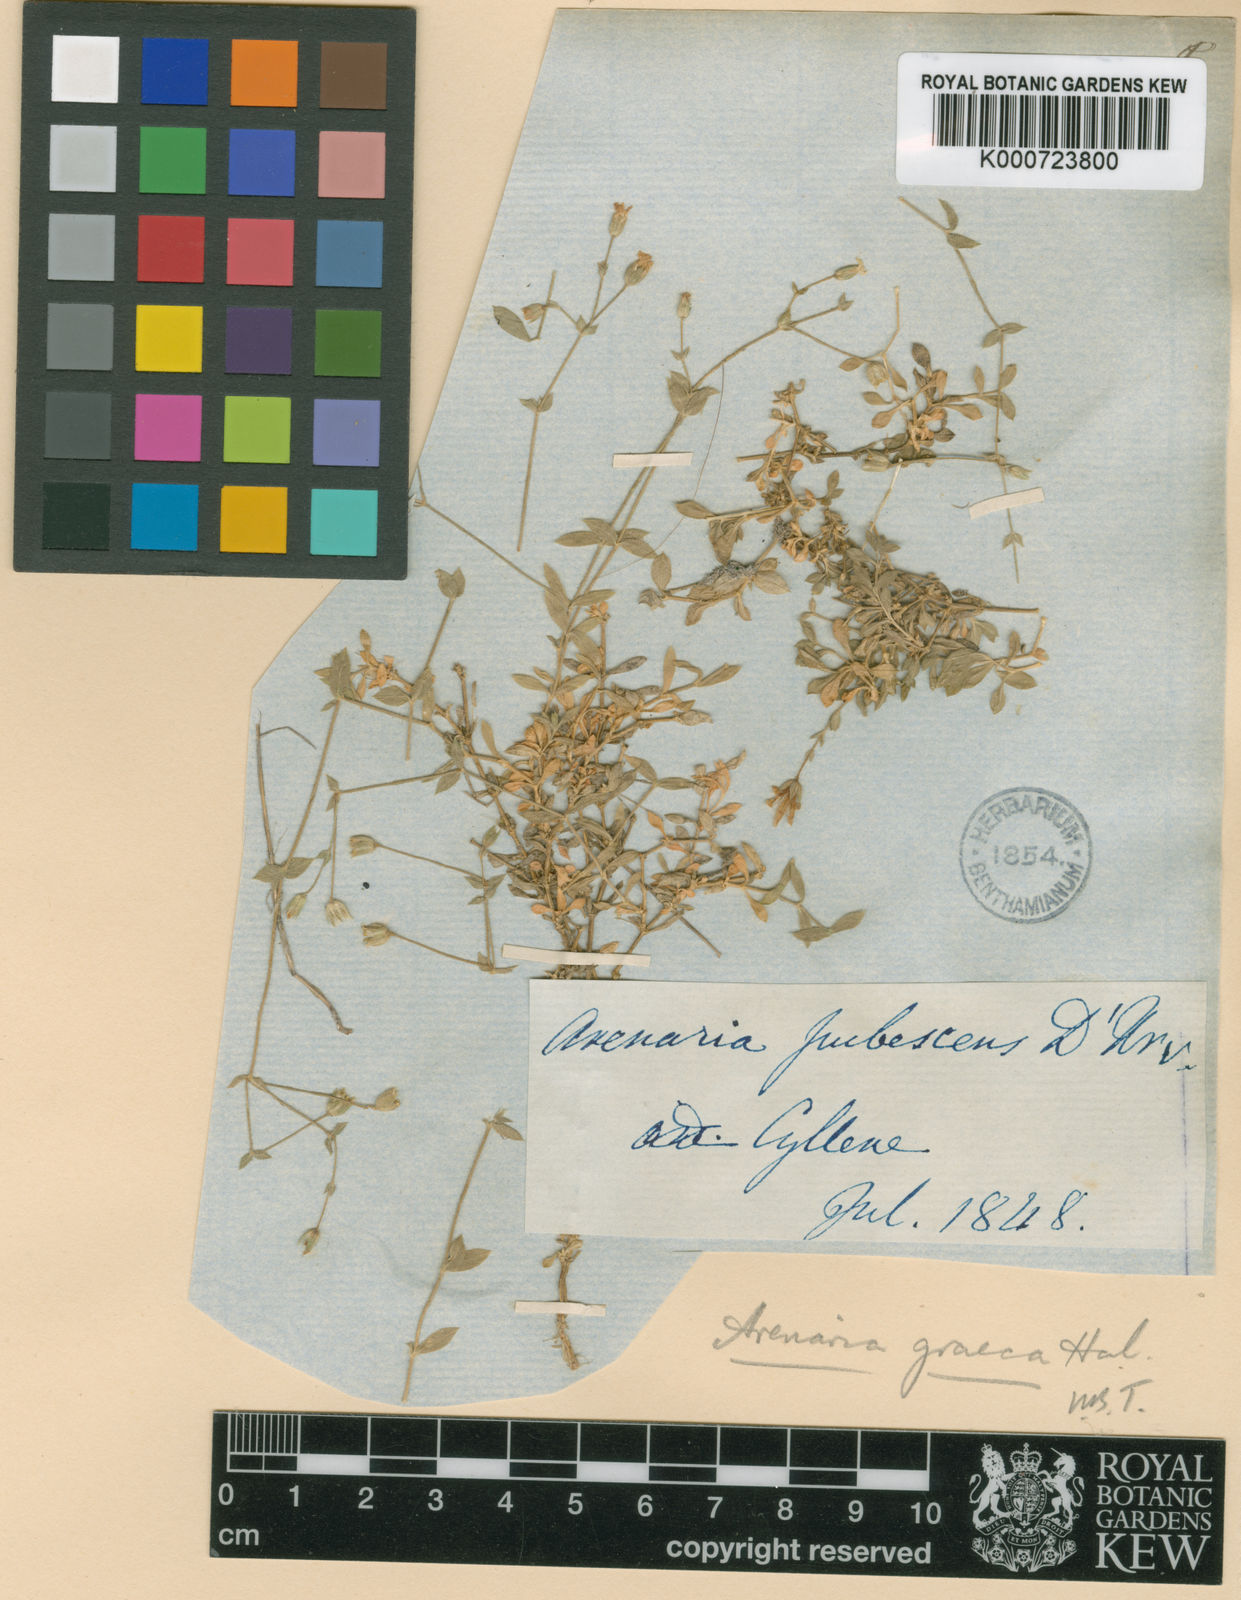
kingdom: Plantae
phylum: Tracheophyta
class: Magnoliopsida
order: Caryophyllales
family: Caryophyllaceae
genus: Arenaria
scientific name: Arenaria
